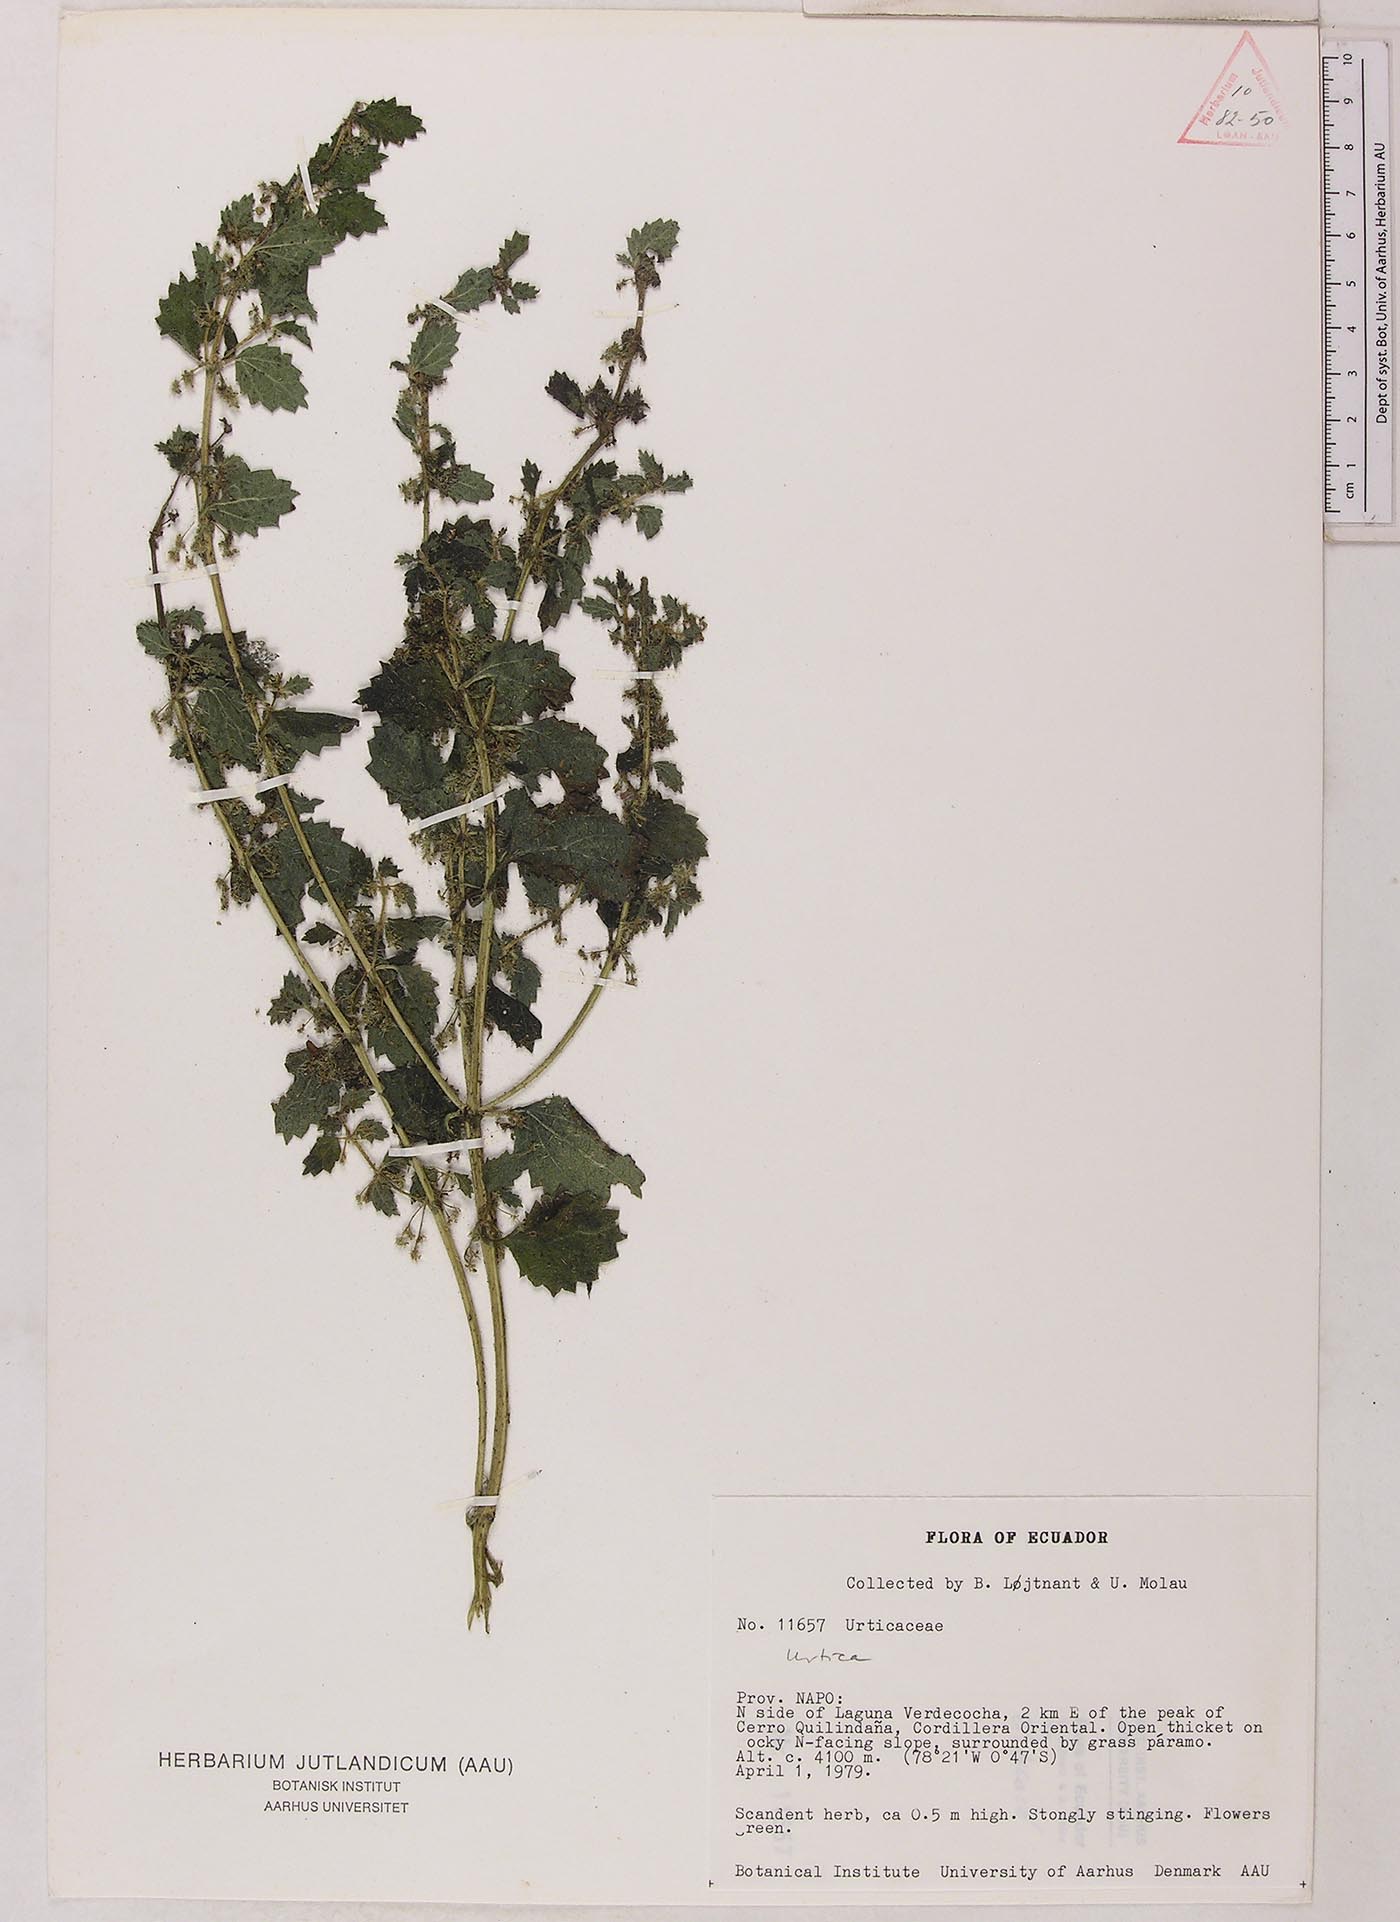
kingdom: Plantae
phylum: Tracheophyta
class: Magnoliopsida
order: Rosales
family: Urticaceae
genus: Urtica
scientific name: Urtica echinata
